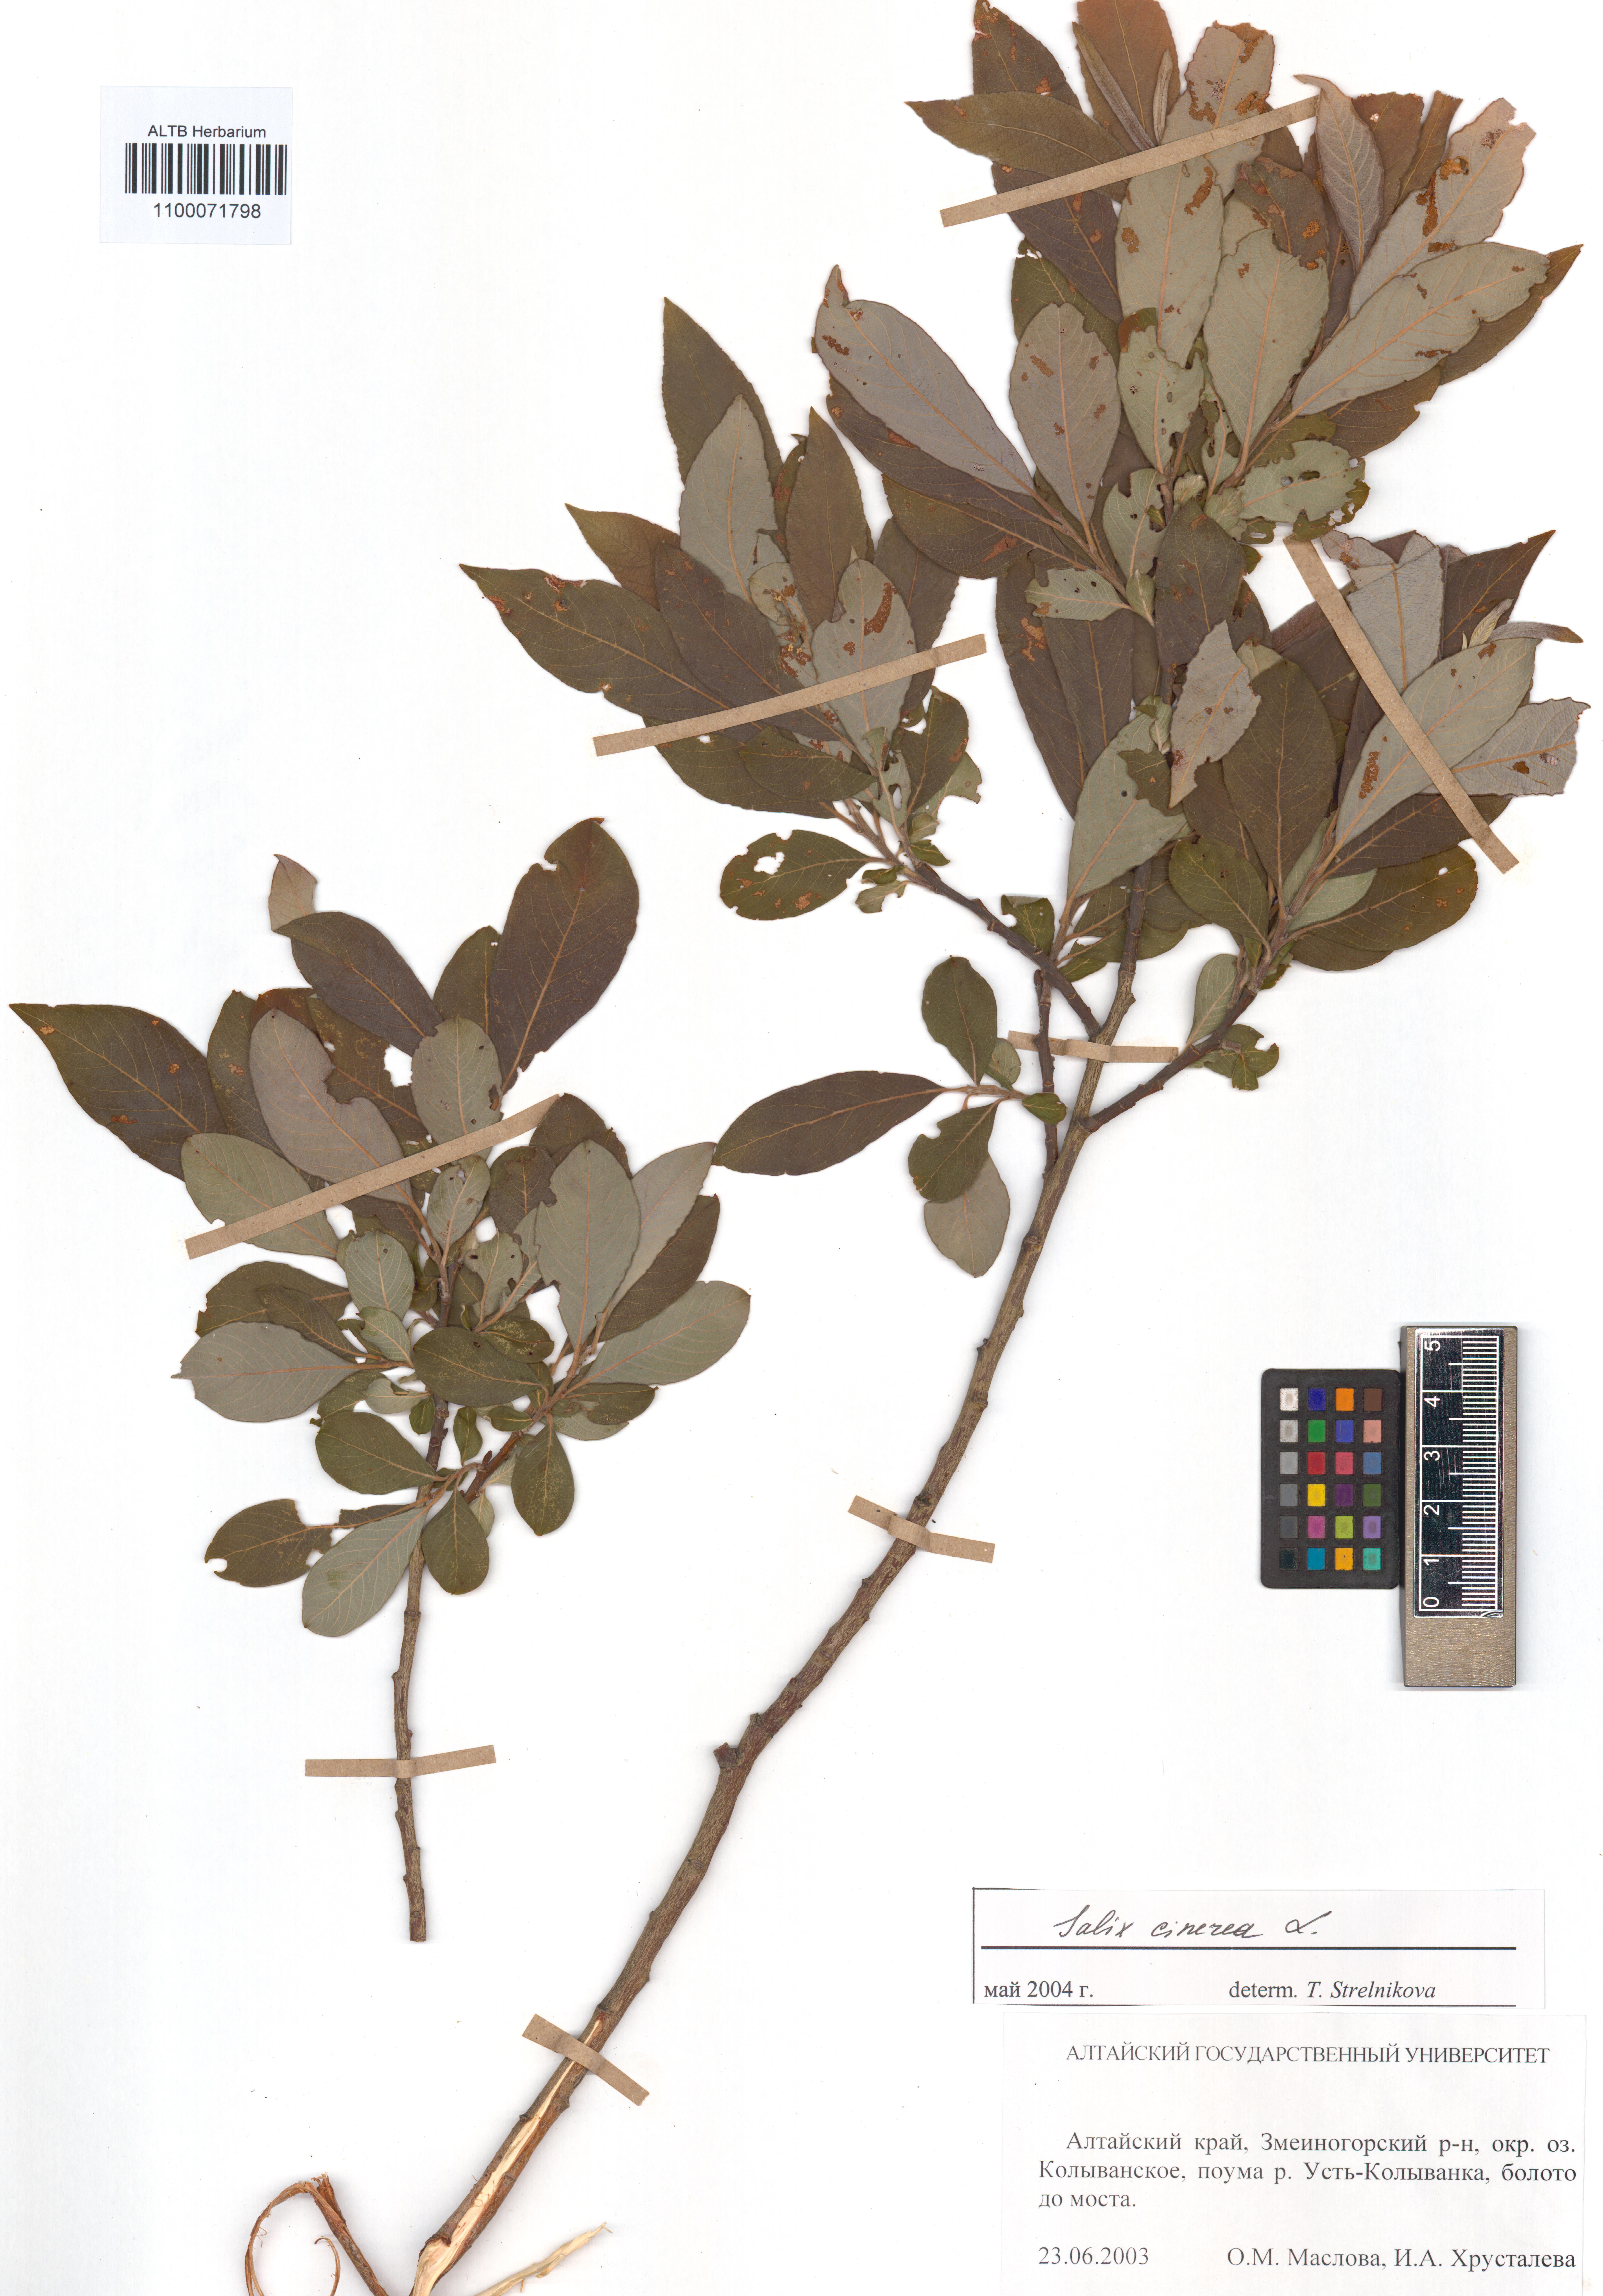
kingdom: Plantae
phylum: Tracheophyta
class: Magnoliopsida
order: Malpighiales
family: Salicaceae
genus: Salix
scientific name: Salix cinerea
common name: Common sallow
